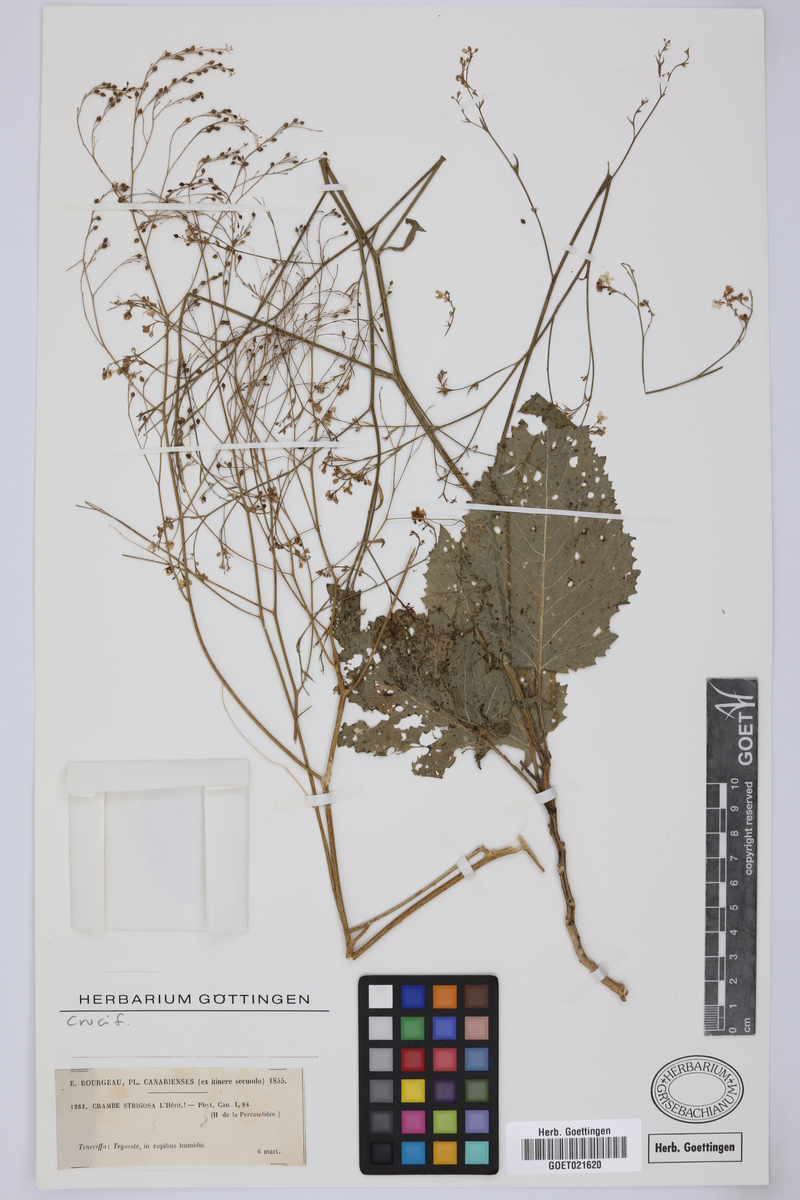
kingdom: Plantae
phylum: Tracheophyta
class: Magnoliopsida
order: Brassicales
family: Brassicaceae
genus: Crambe
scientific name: Crambe strigosa
